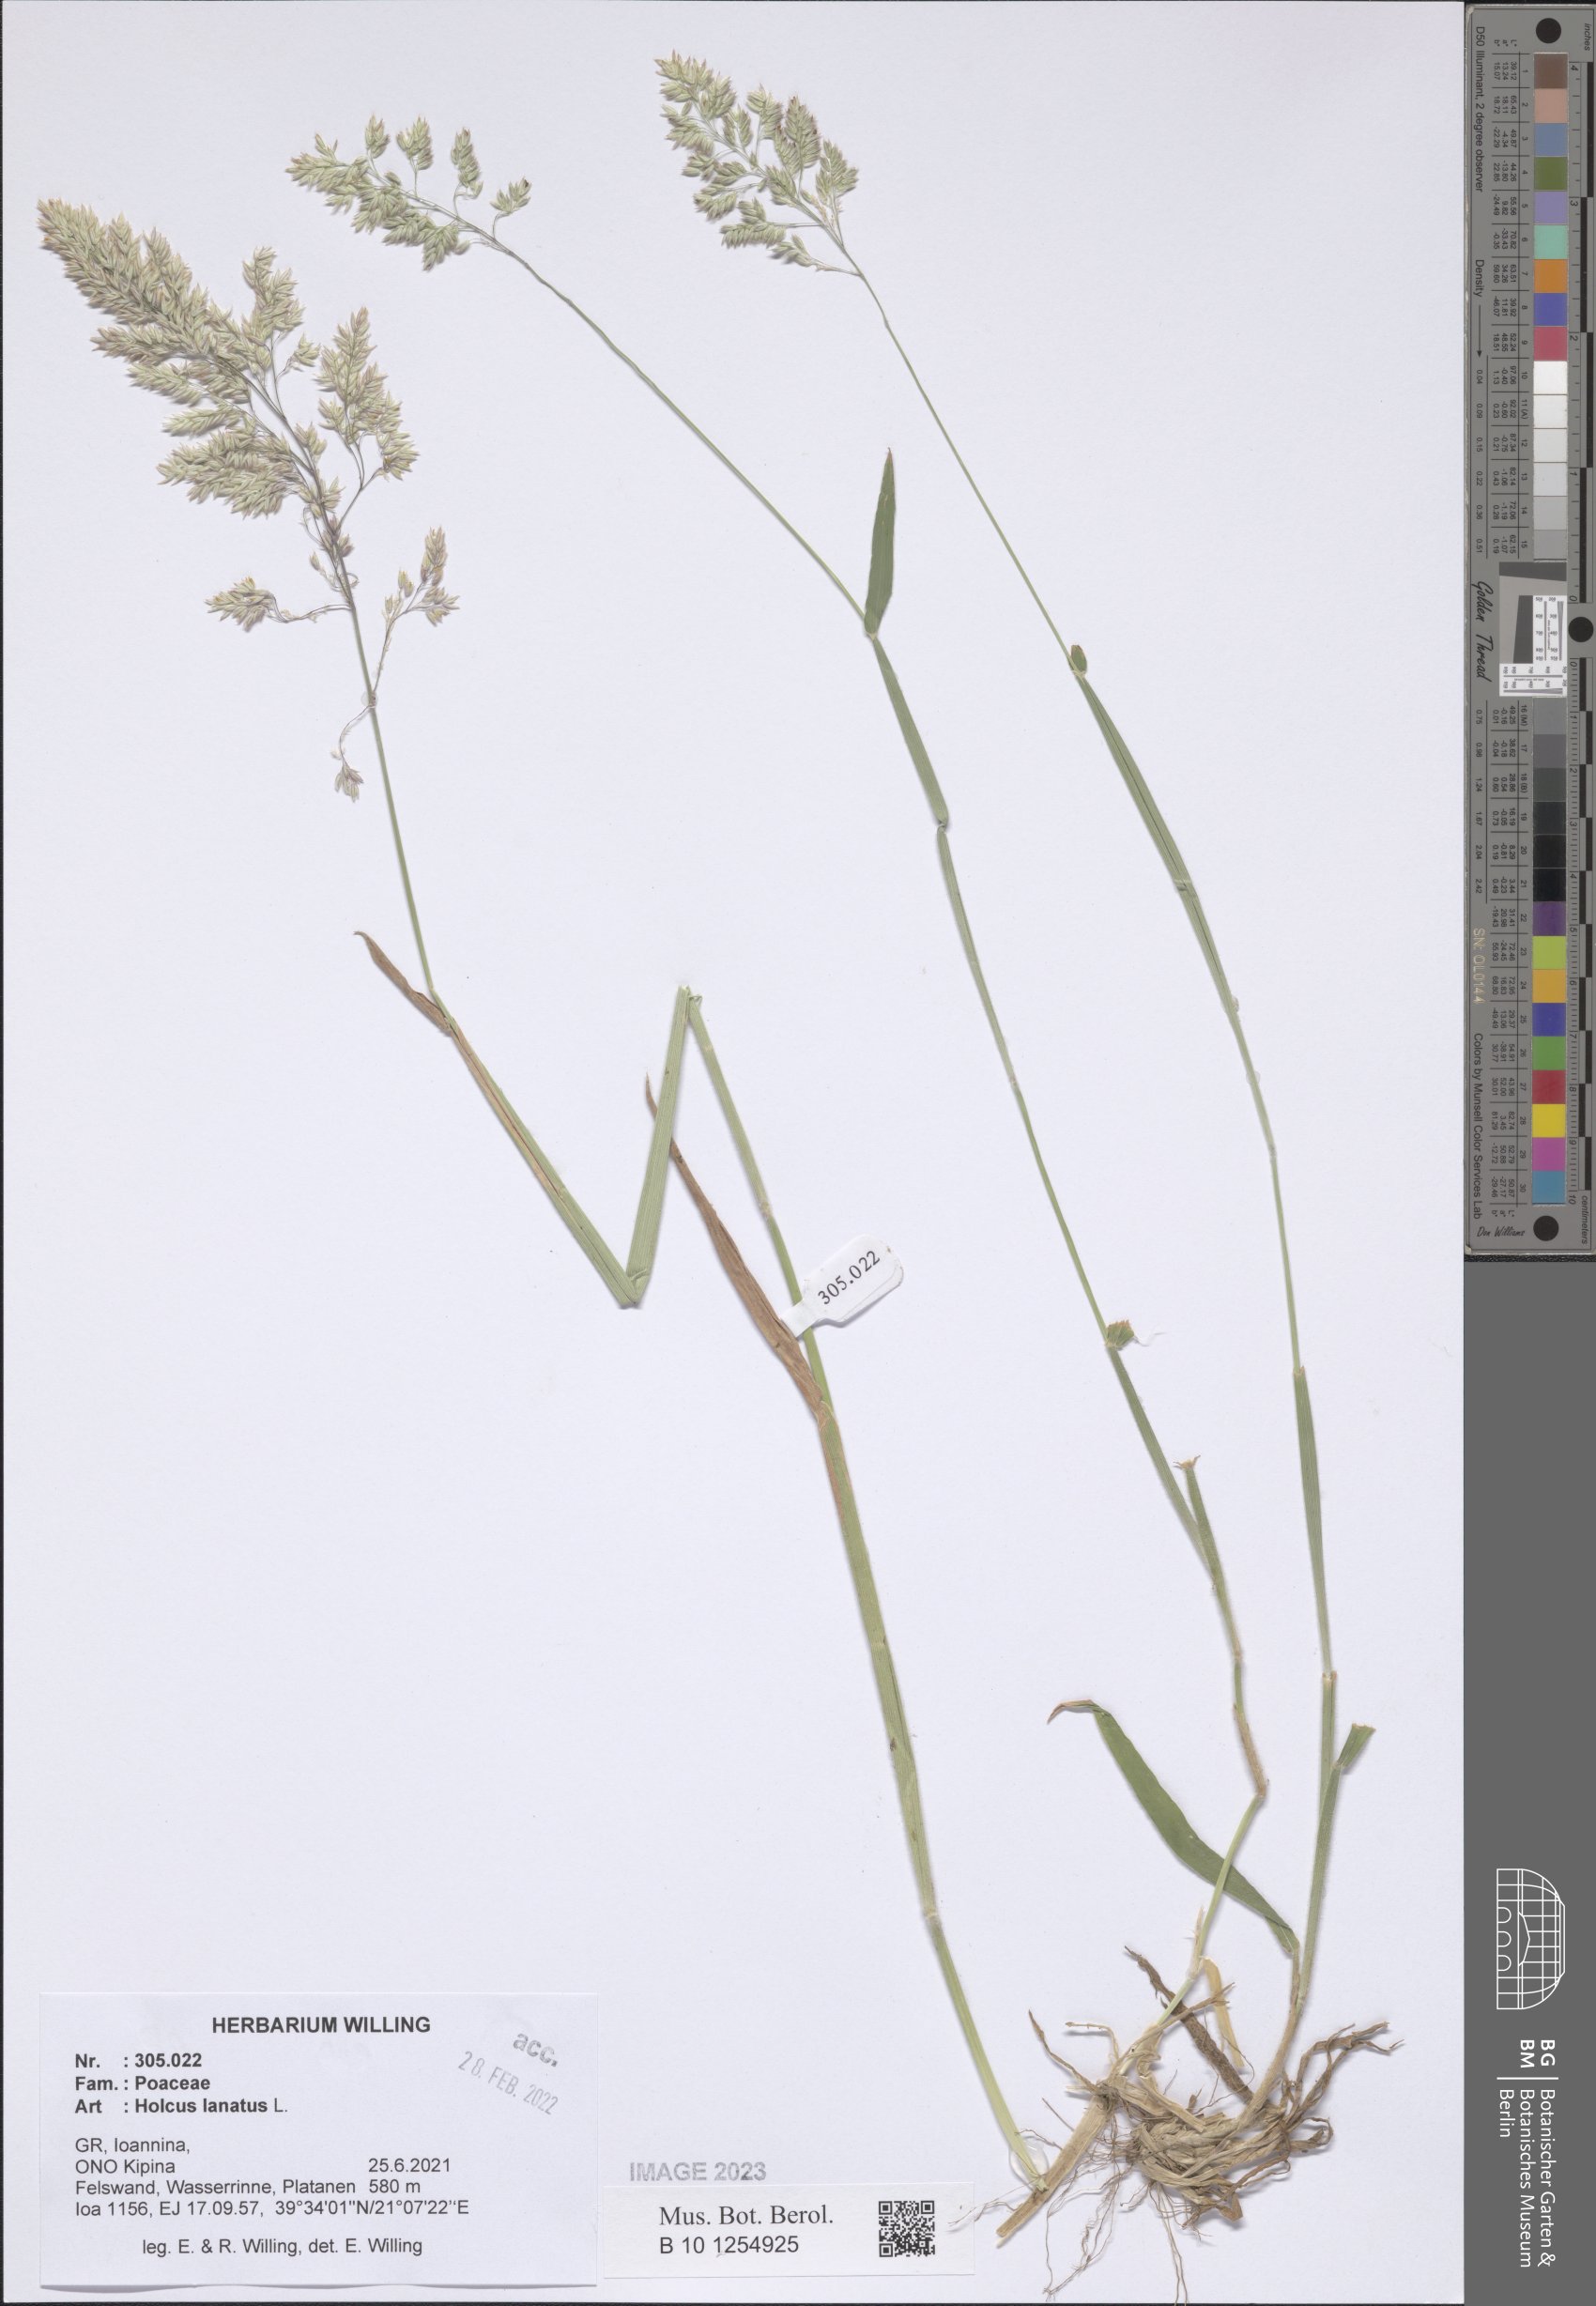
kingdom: Plantae
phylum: Tracheophyta
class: Liliopsida
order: Poales
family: Poaceae
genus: Holcus
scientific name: Holcus lanatus
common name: Yorkshire-fog
